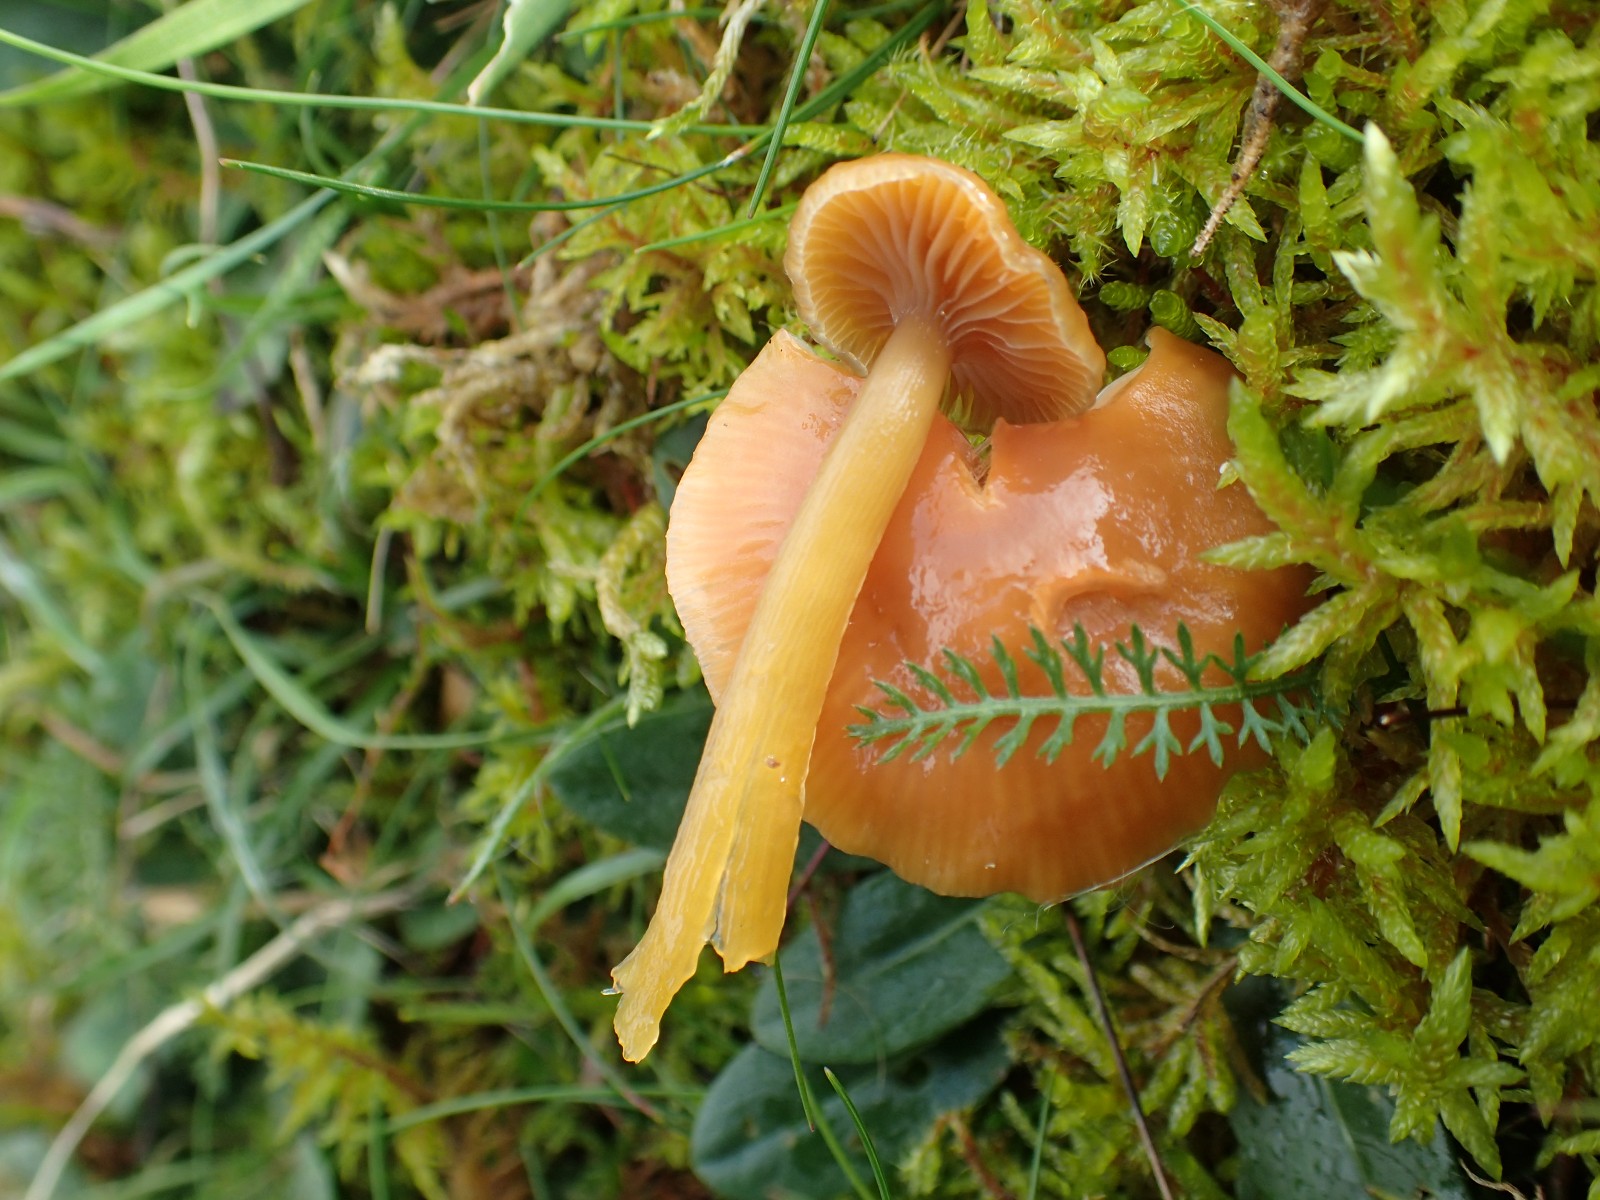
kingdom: Fungi
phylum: Basidiomycota
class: Agaricomycetes
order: Agaricales
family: Hygrophoraceae
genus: Gliophorus
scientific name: Gliophorus laetus
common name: brusk-vokshat
